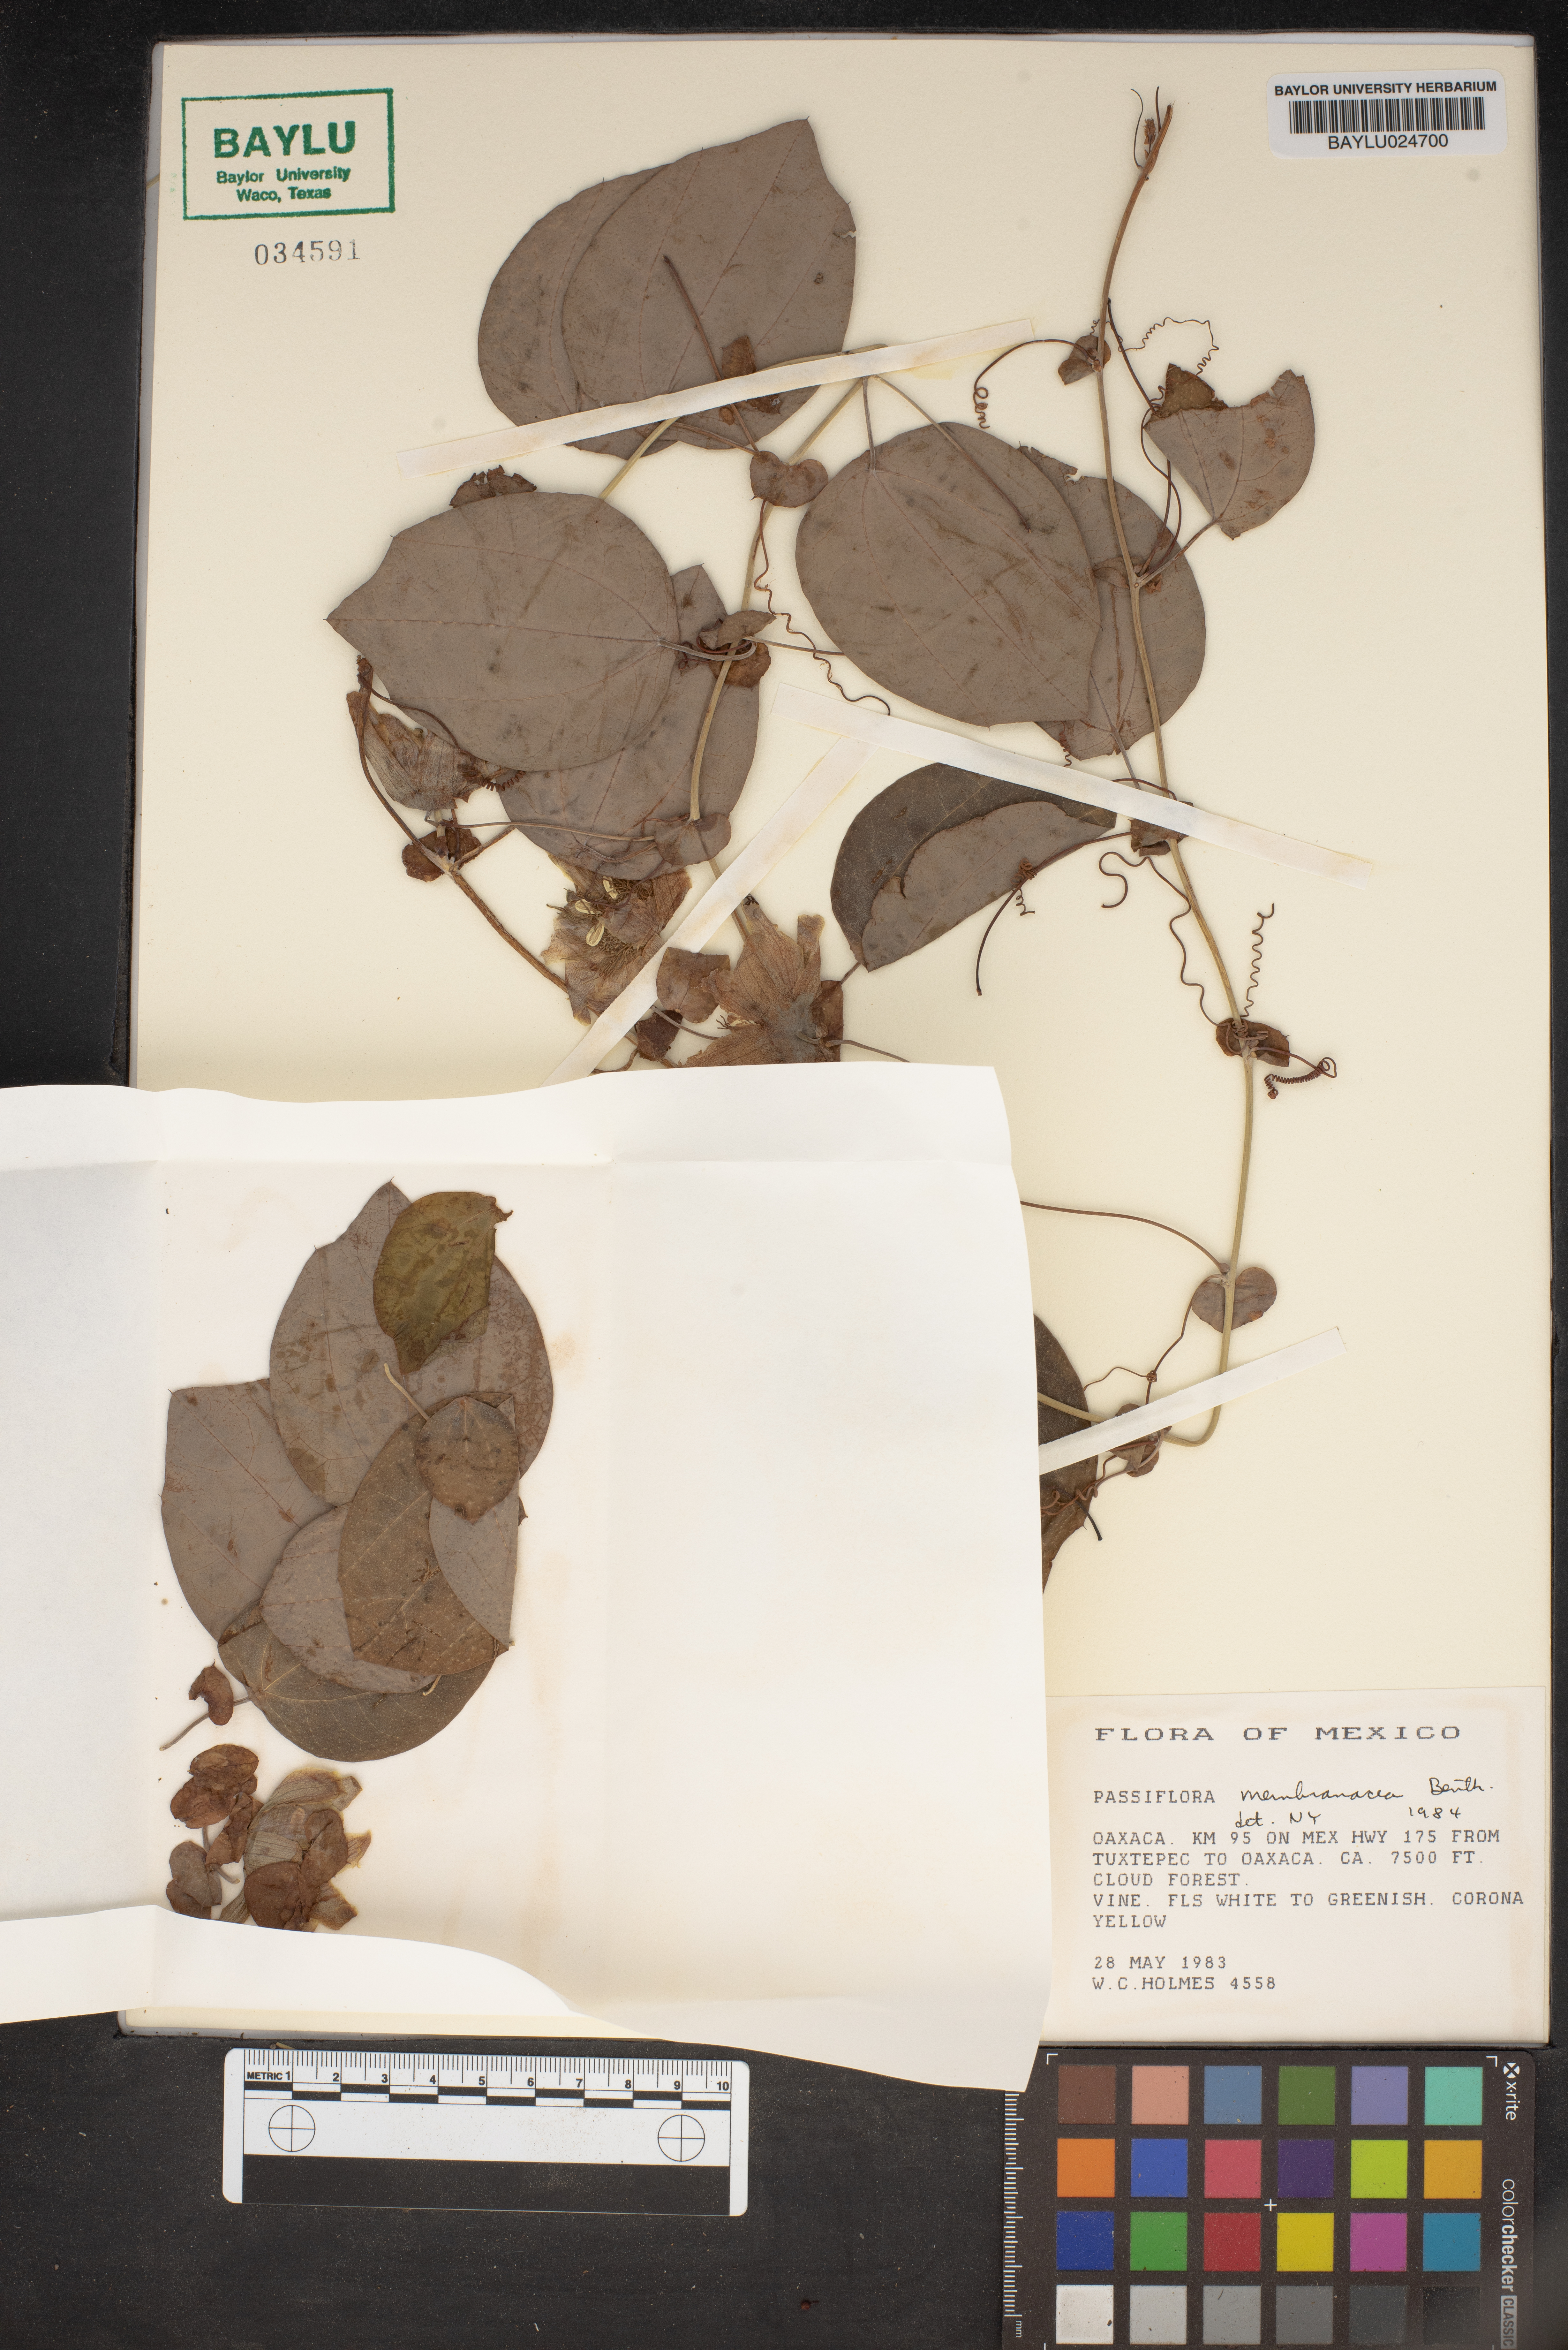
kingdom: Plantae
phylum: Tracheophyta
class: Magnoliopsida
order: Malpighiales
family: Passifloraceae
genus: Passiflora
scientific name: Passiflora membranacea
